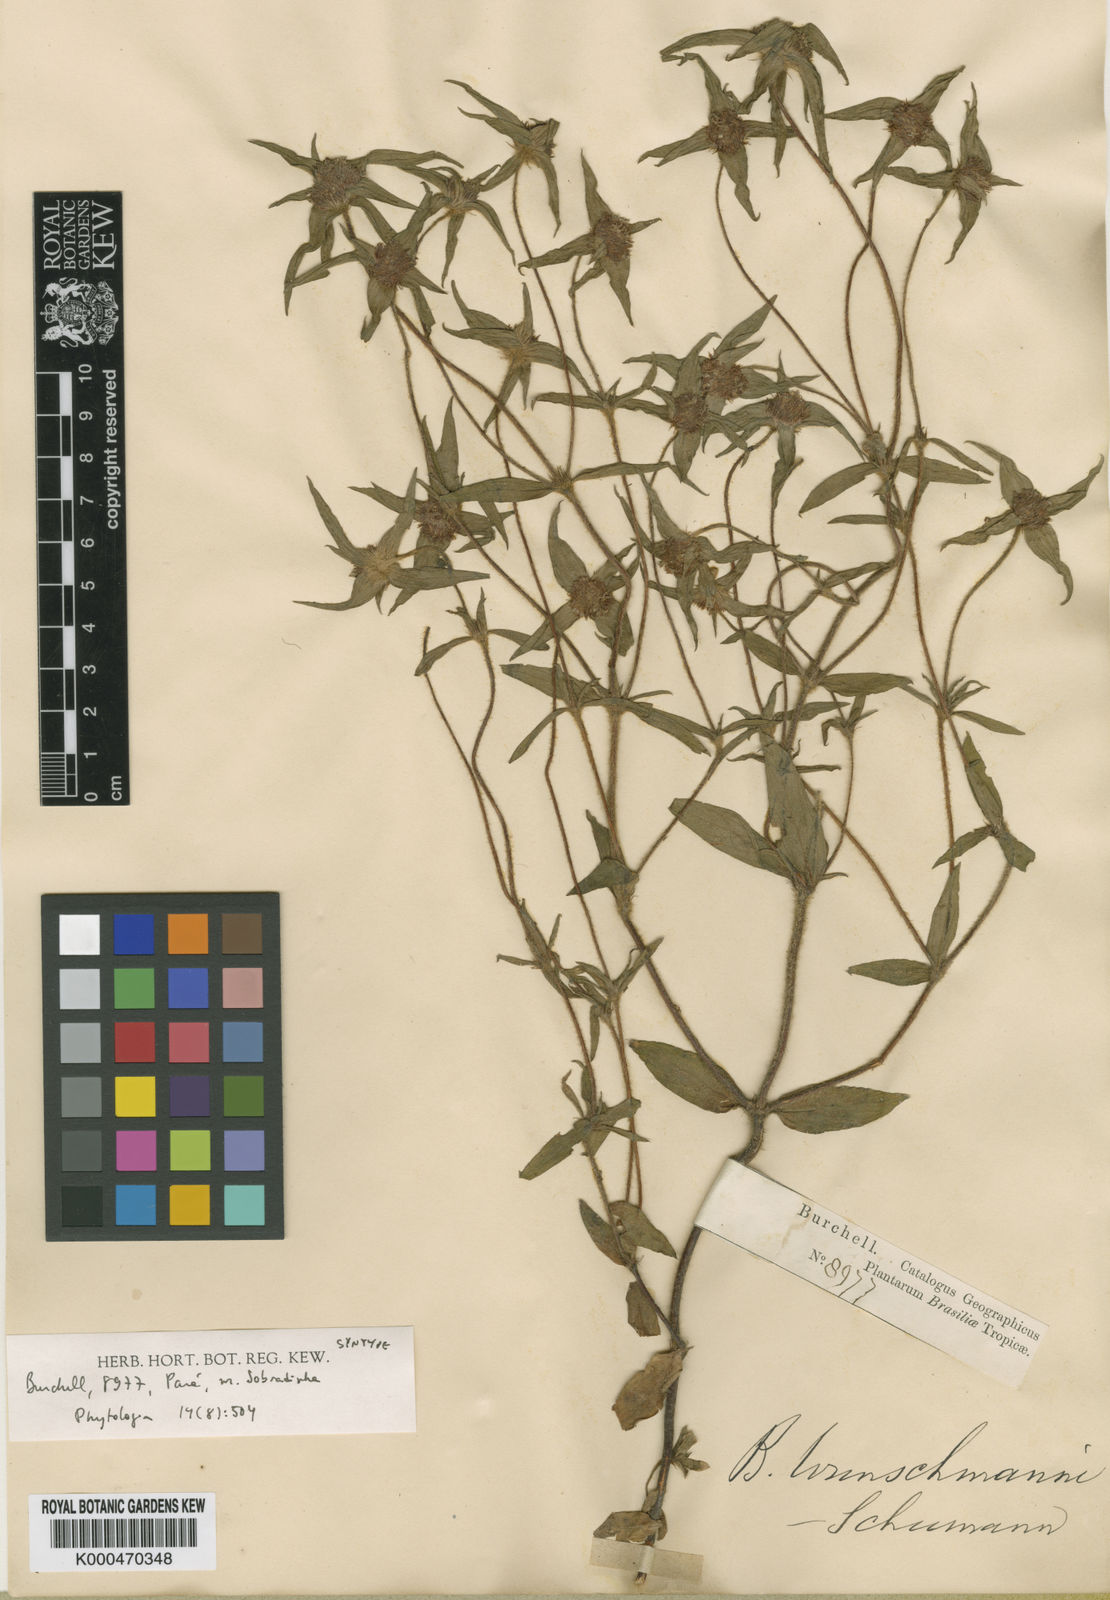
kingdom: Plantae
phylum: Tracheophyta
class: Magnoliopsida
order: Gentianales
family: Rubiaceae
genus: Spermacoce
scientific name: Spermacoce wunschmannii
